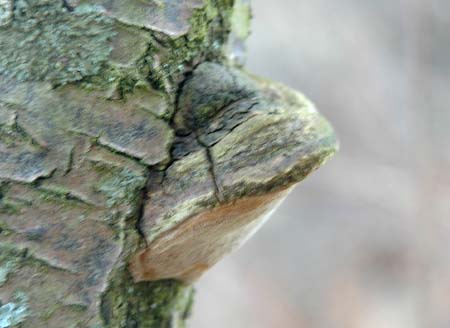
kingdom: Fungi
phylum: Basidiomycota
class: Agaricomycetes
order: Hymenochaetales
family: Hymenochaetaceae
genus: Phellinus
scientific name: Phellinus pomaceus
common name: blomme-ildporesvamp
